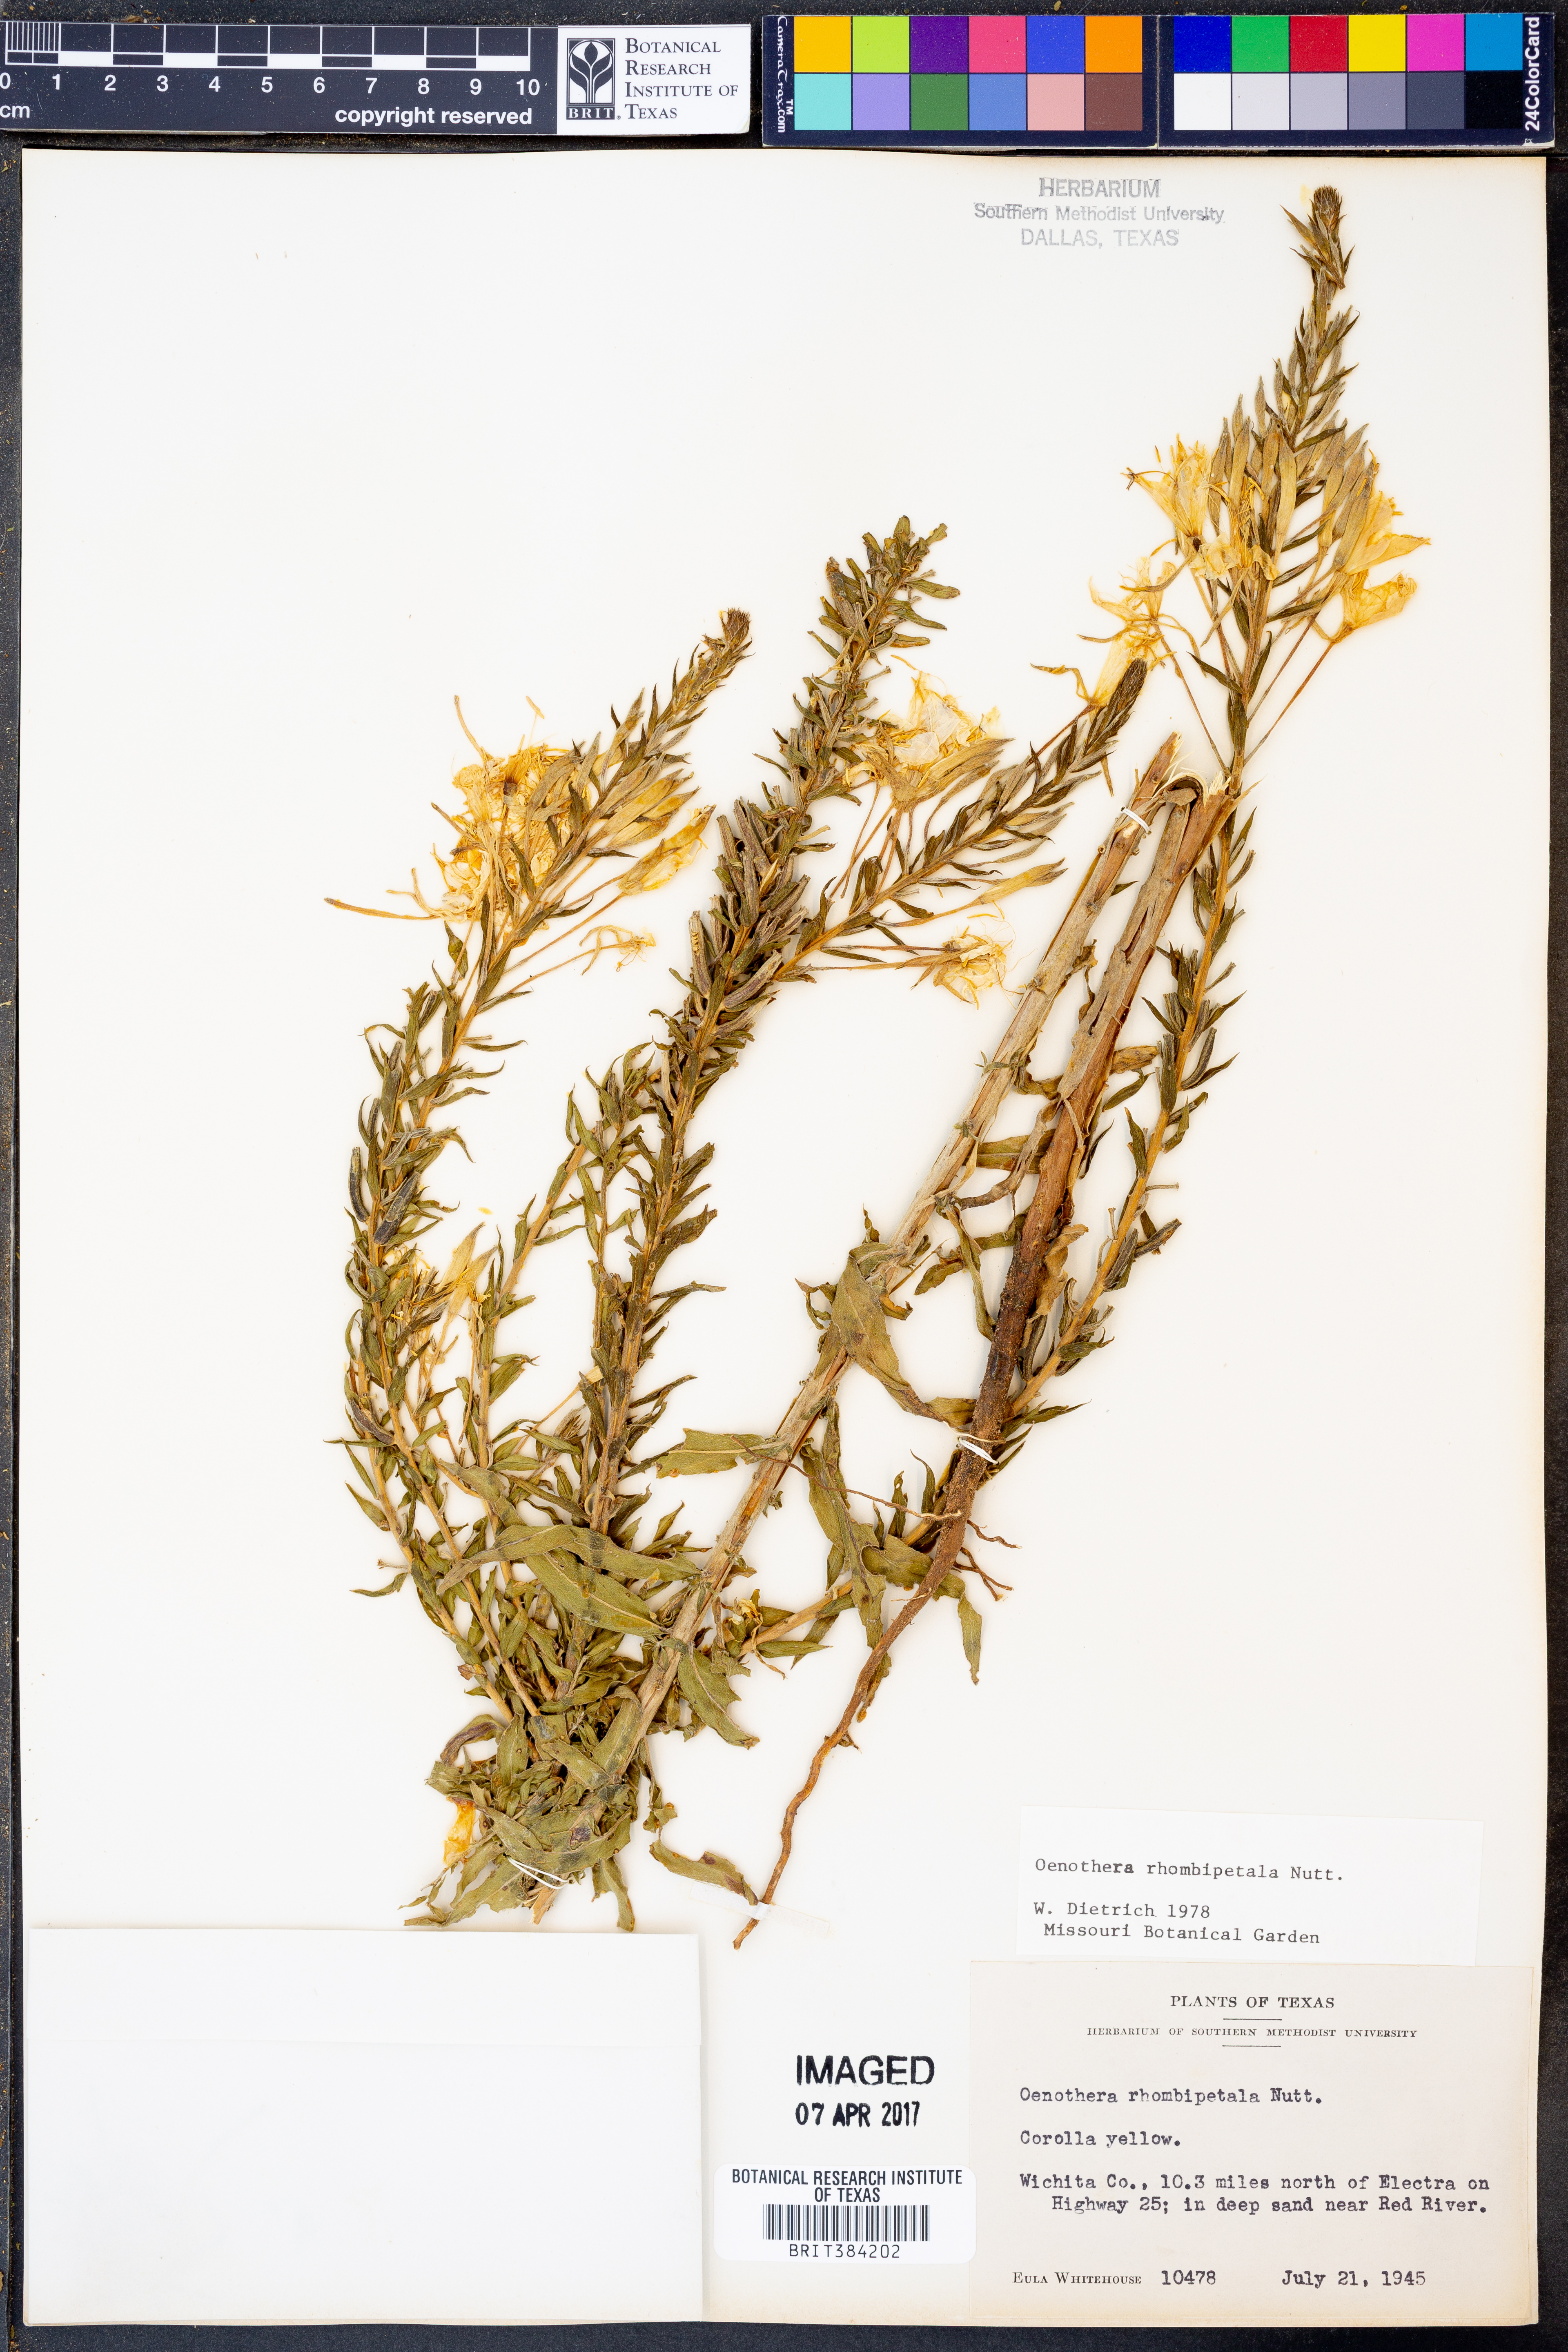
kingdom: Plantae
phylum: Tracheophyta
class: Magnoliopsida
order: Myrtales
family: Onagraceae
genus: Oenothera
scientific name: Oenothera rhombipetala
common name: Four-points evening-primrose
